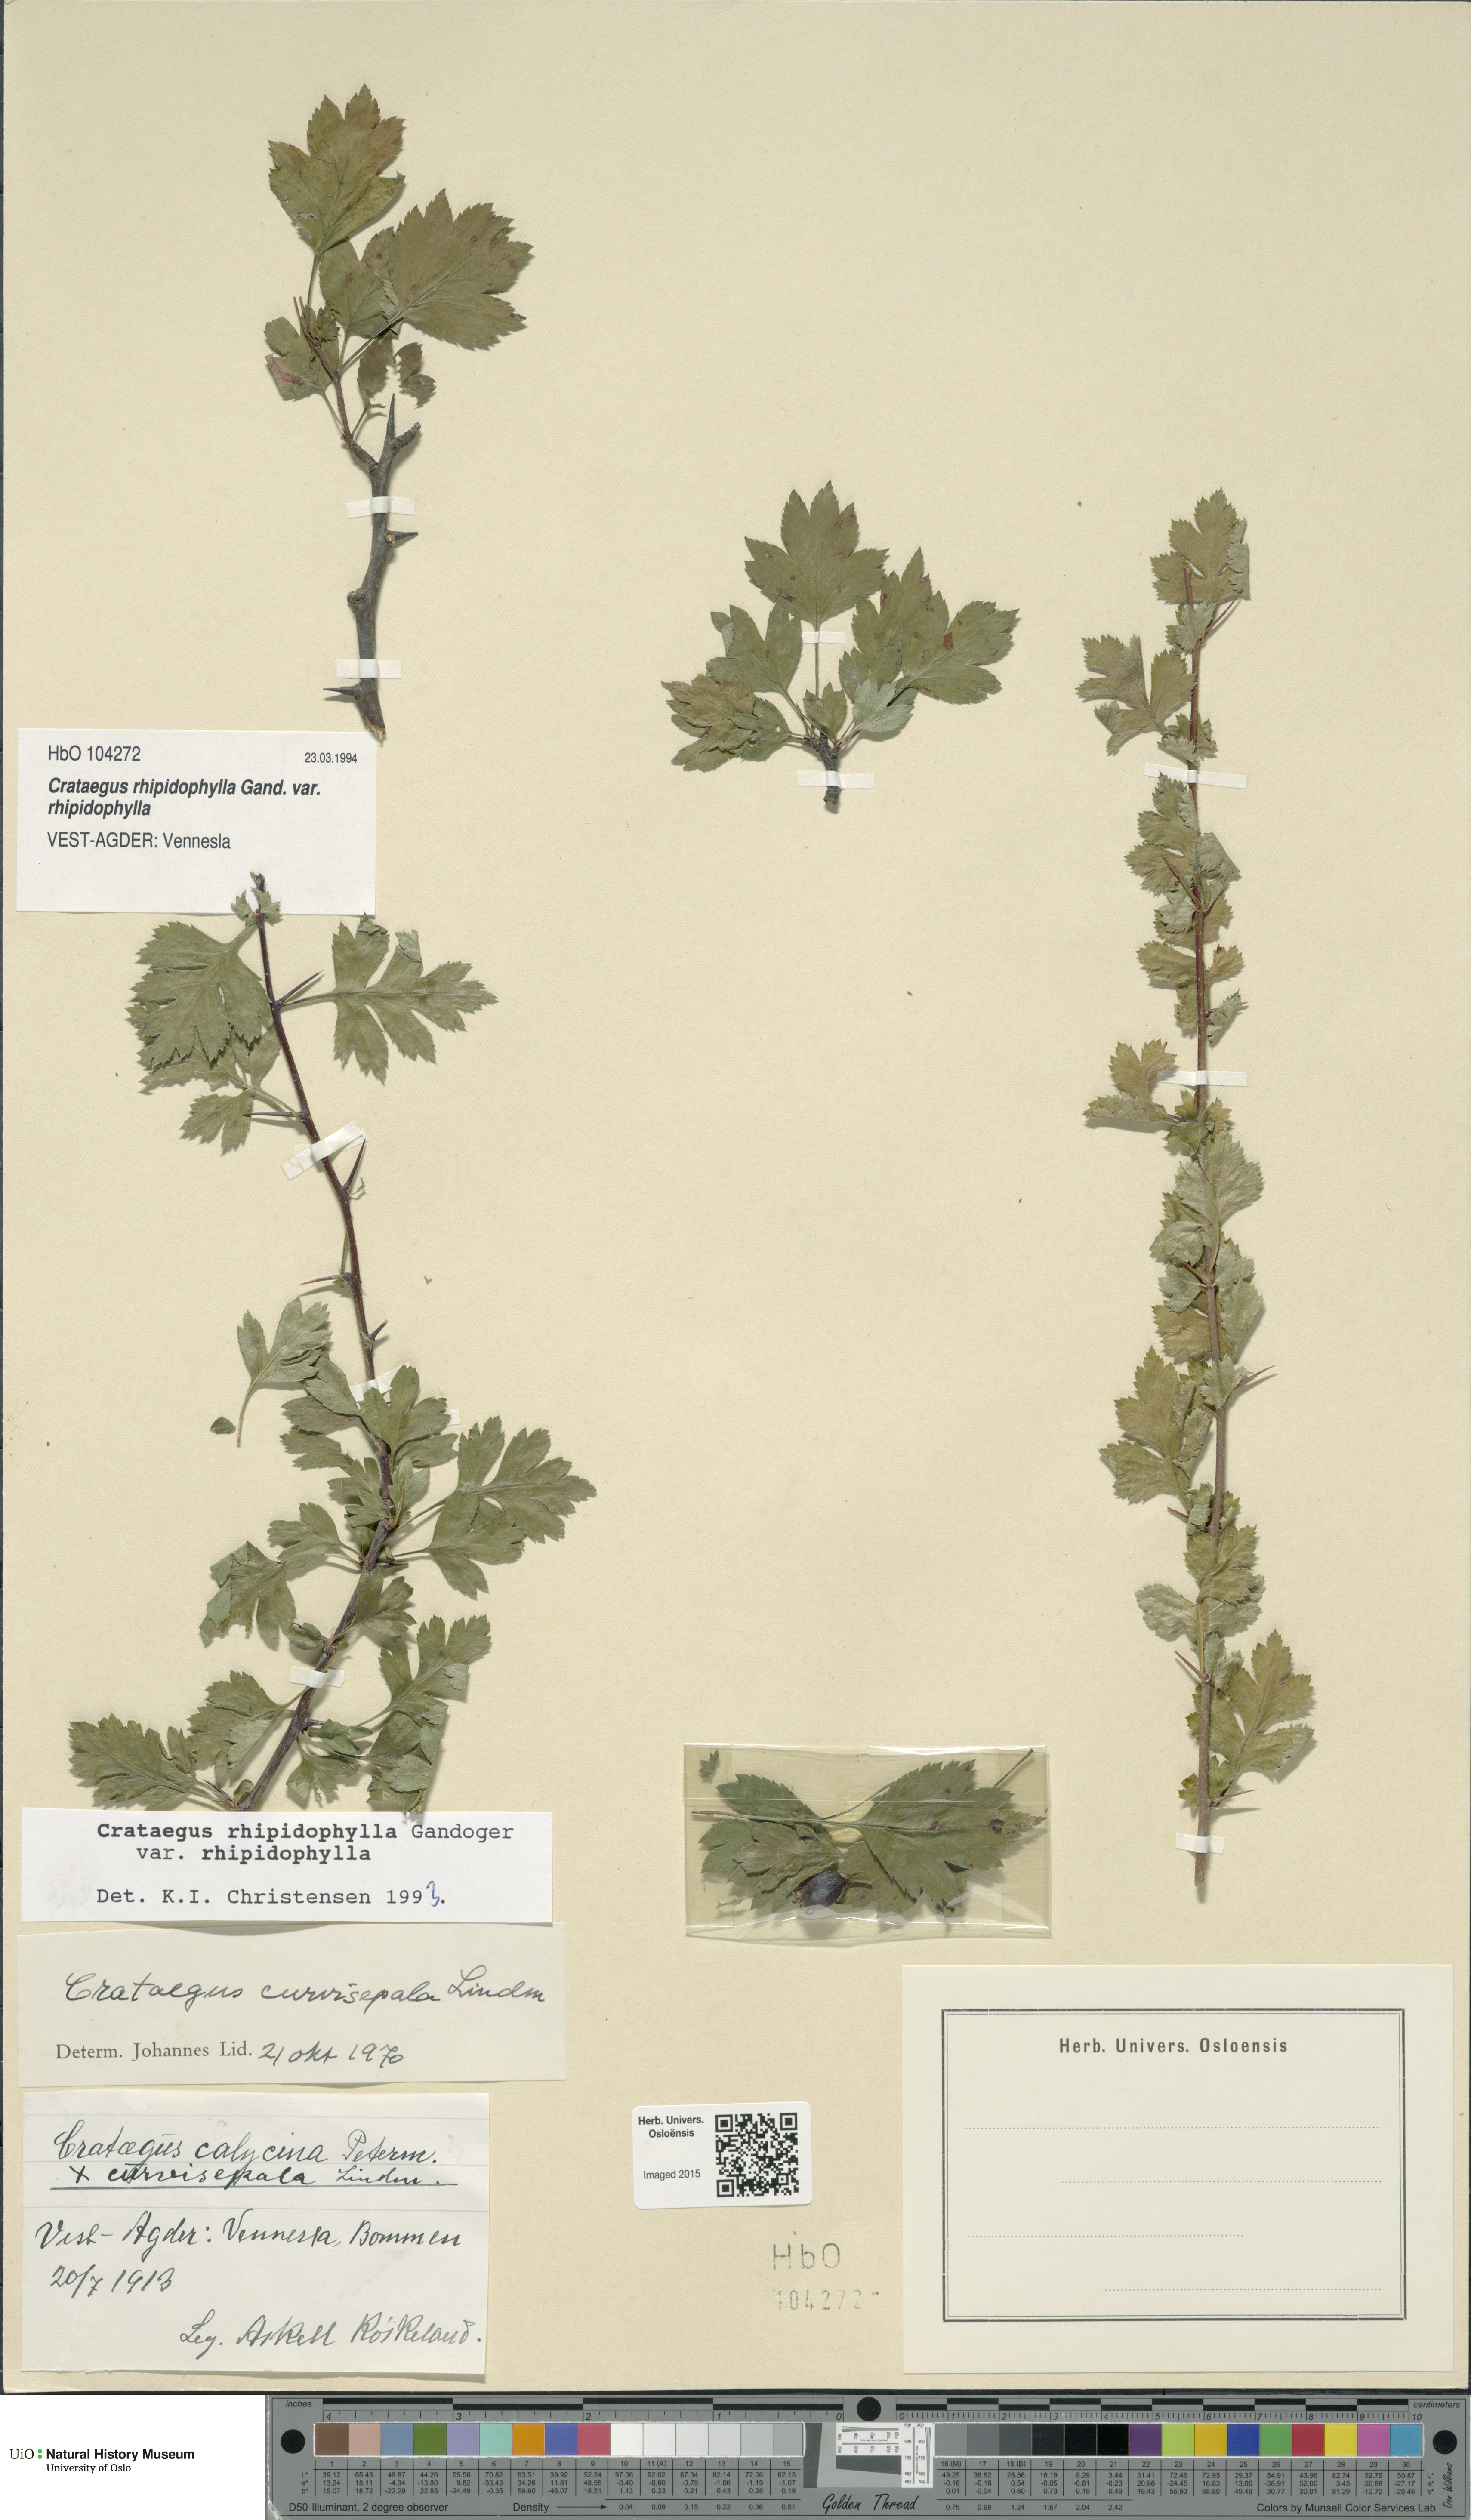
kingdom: Plantae
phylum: Tracheophyta
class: Magnoliopsida
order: Rosales
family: Rosaceae
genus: Crataegus
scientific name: Crataegus rhipidophylla
